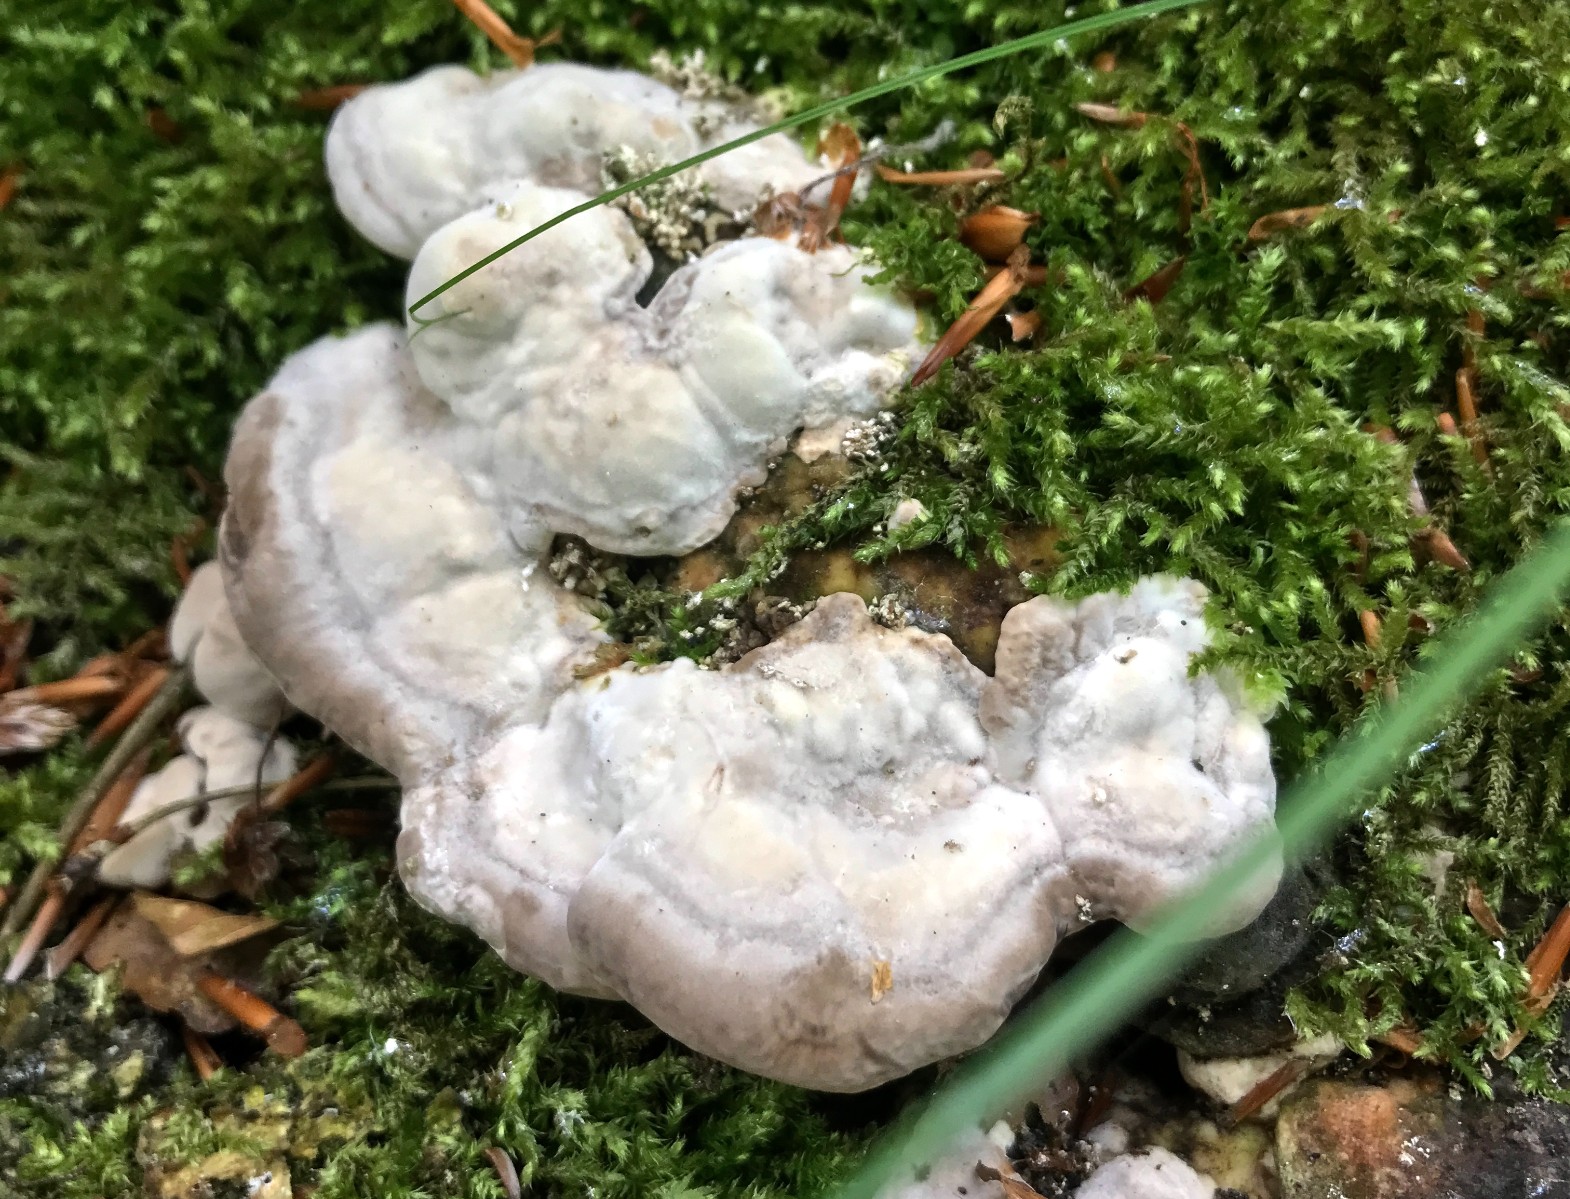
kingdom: Fungi
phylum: Basidiomycota
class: Agaricomycetes
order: Polyporales
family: Polyporaceae
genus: Trametes
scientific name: Trametes hirsuta
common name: håret læderporesvamp
